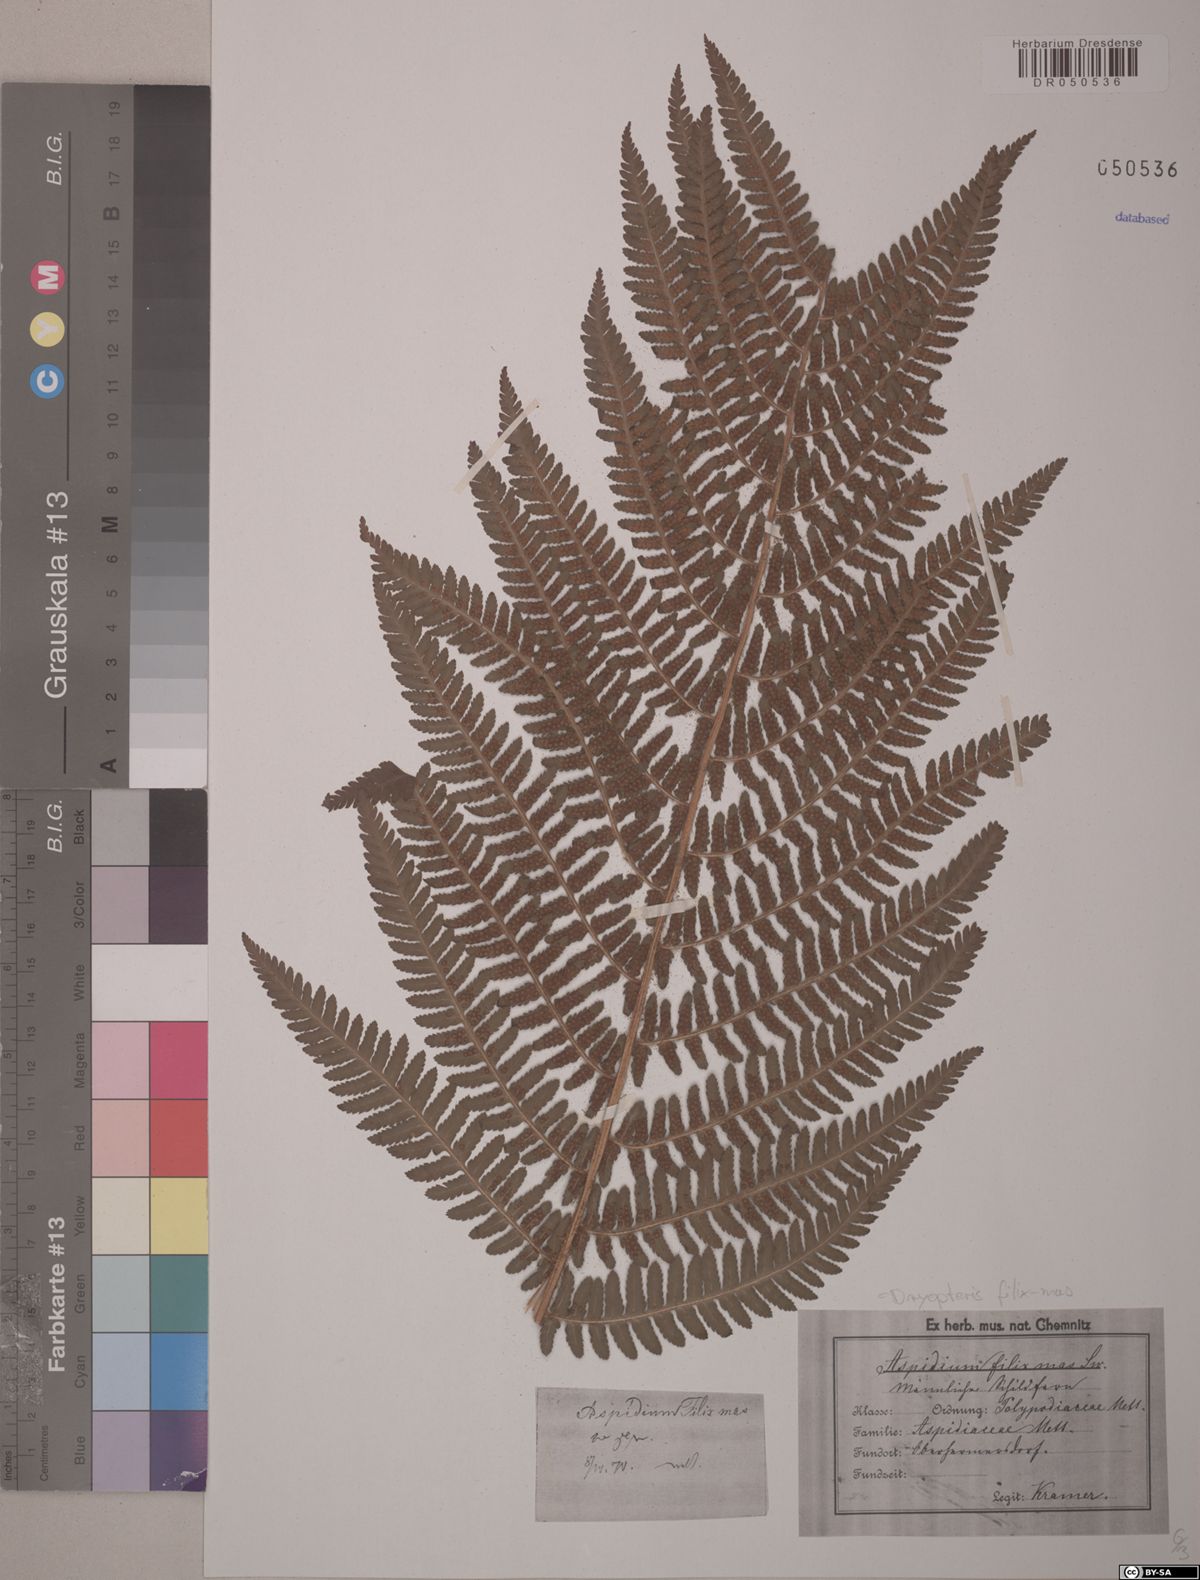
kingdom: Plantae
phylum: Tracheophyta
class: Polypodiopsida
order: Polypodiales
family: Dryopteridaceae
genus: Dryopteris
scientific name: Dryopteris filix-mas
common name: Male fern
